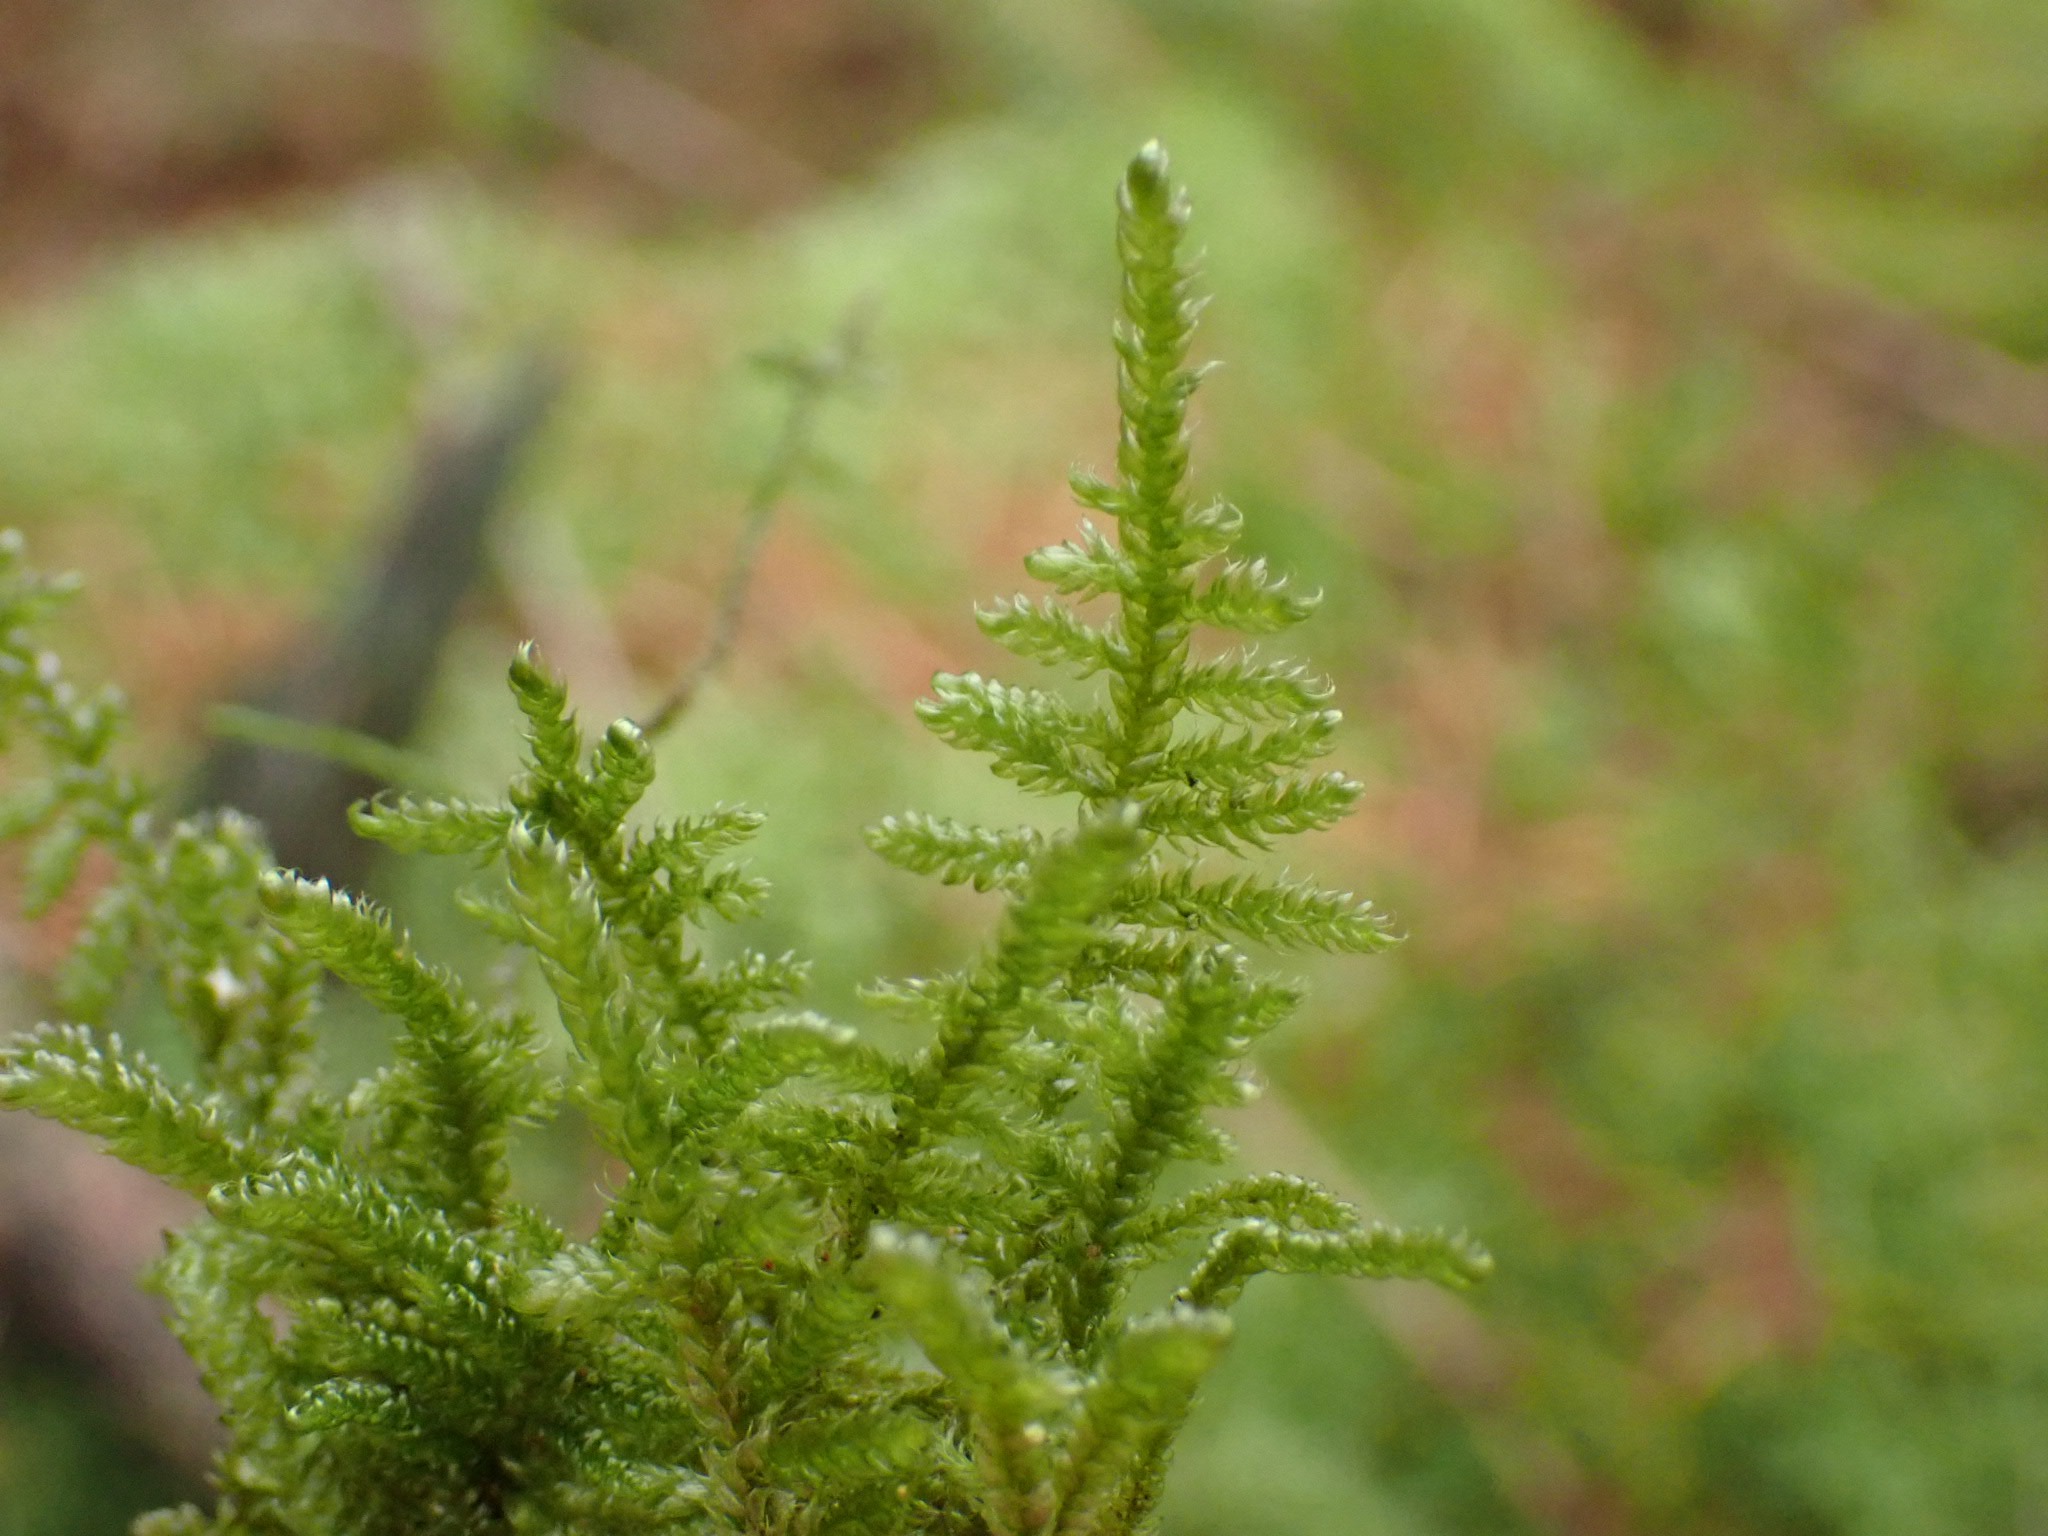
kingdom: Plantae
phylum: Bryophyta
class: Bryopsida
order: Hypnales
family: Hypnaceae
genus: Hypnum
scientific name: Hypnum jutlandicum
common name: Hede-cypresmos
